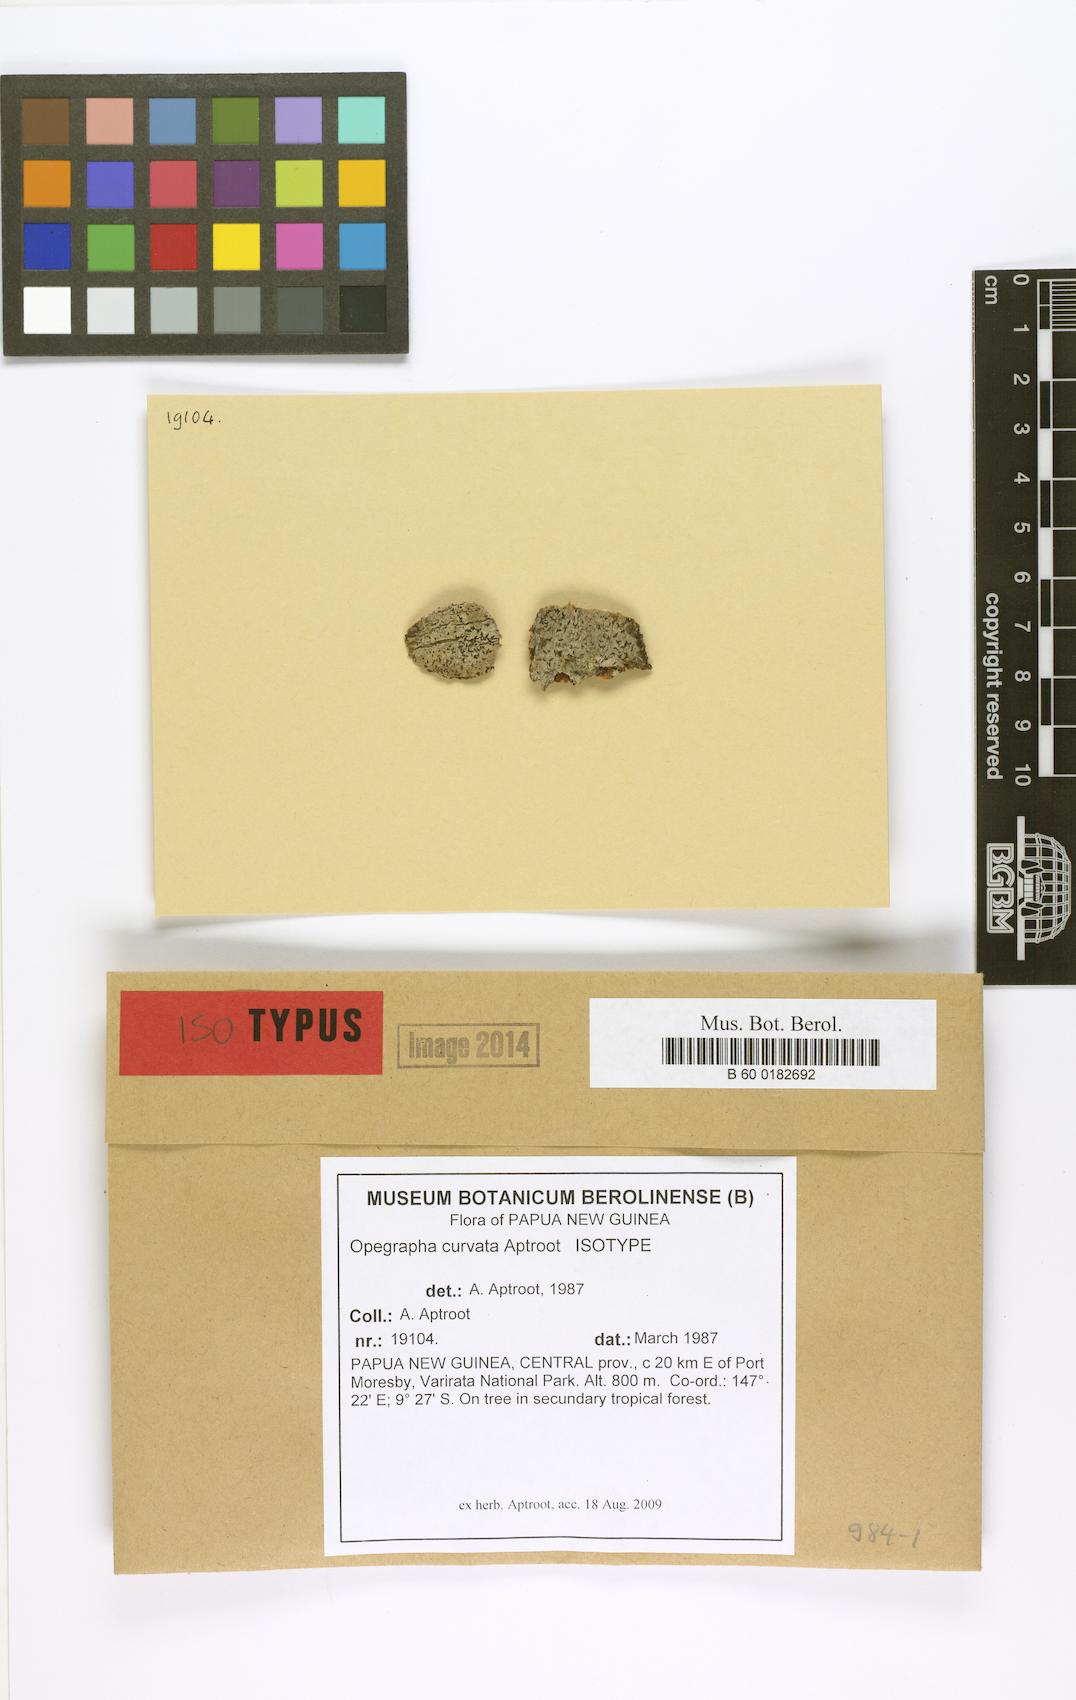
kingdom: Fungi
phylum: Ascomycota
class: Arthoniomycetes
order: Arthoniales
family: Roccellaceae
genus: Ancistrosporella
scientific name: Ancistrosporella curvata
